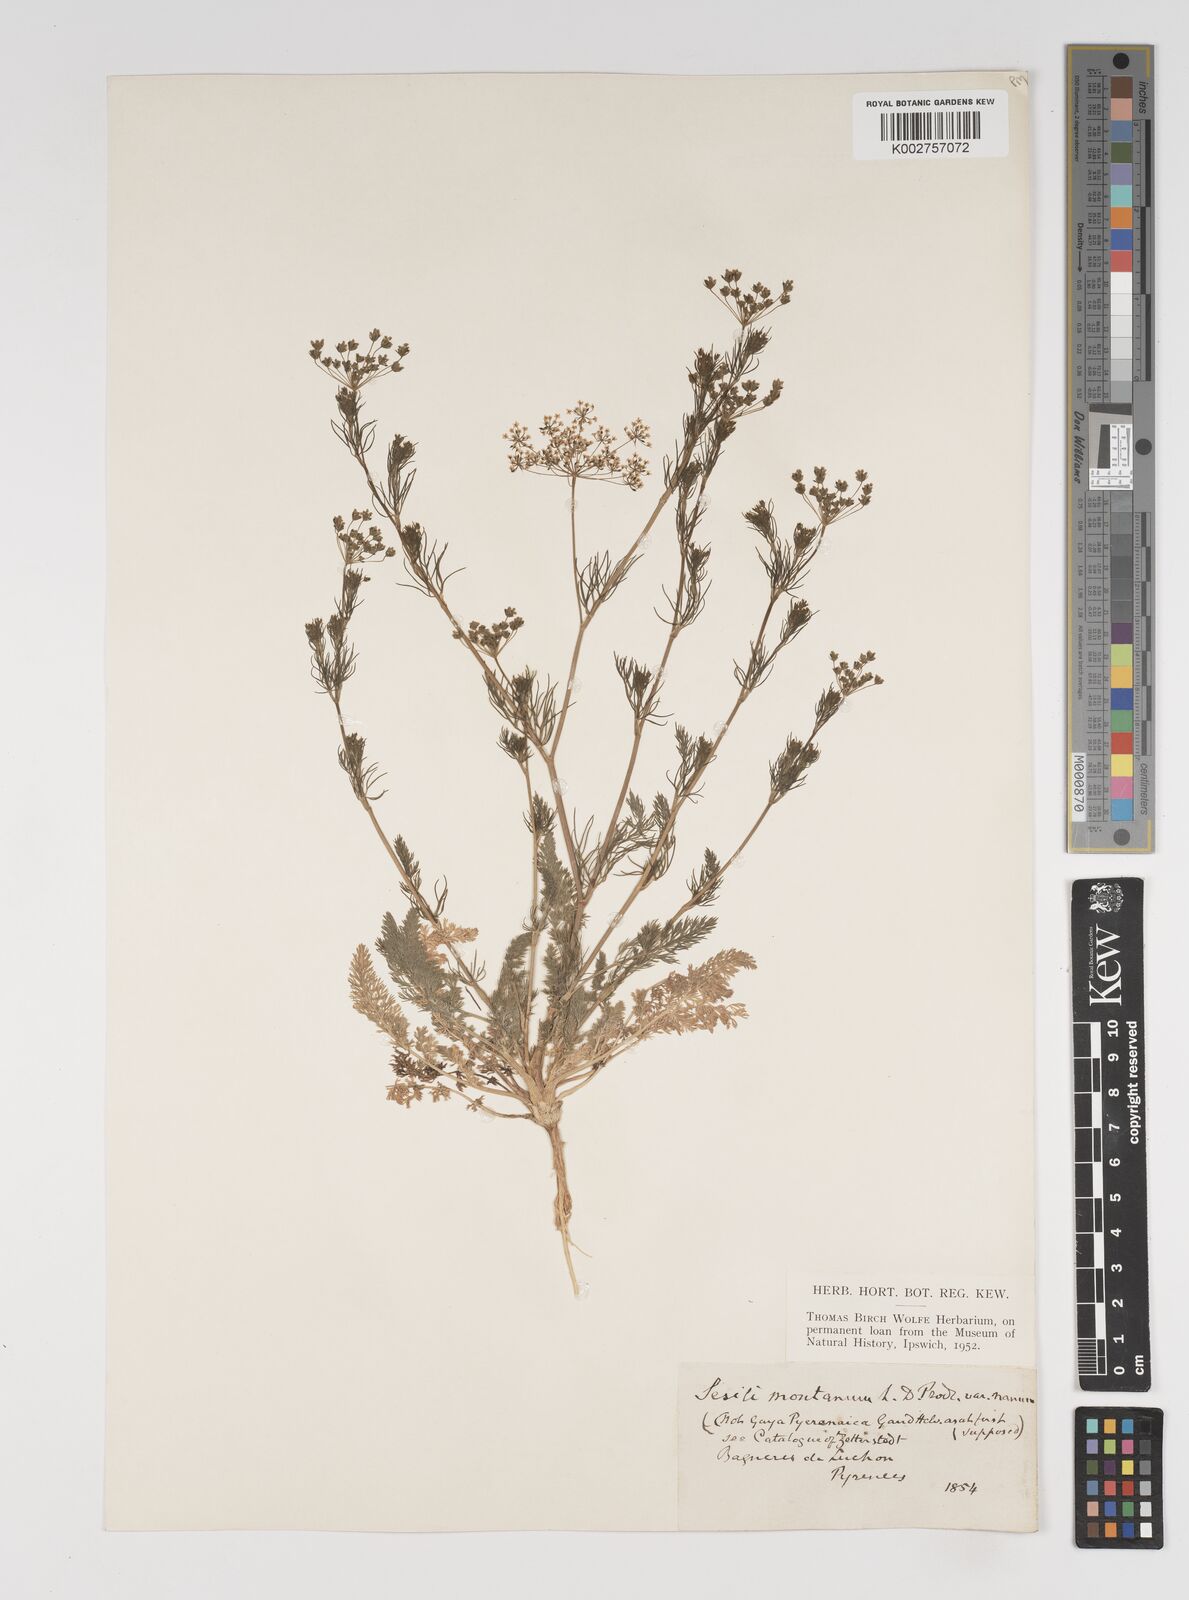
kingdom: Plantae
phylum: Tracheophyta
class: Magnoliopsida
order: Apiales
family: Apiaceae
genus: Seseli
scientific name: Seseli montanum
